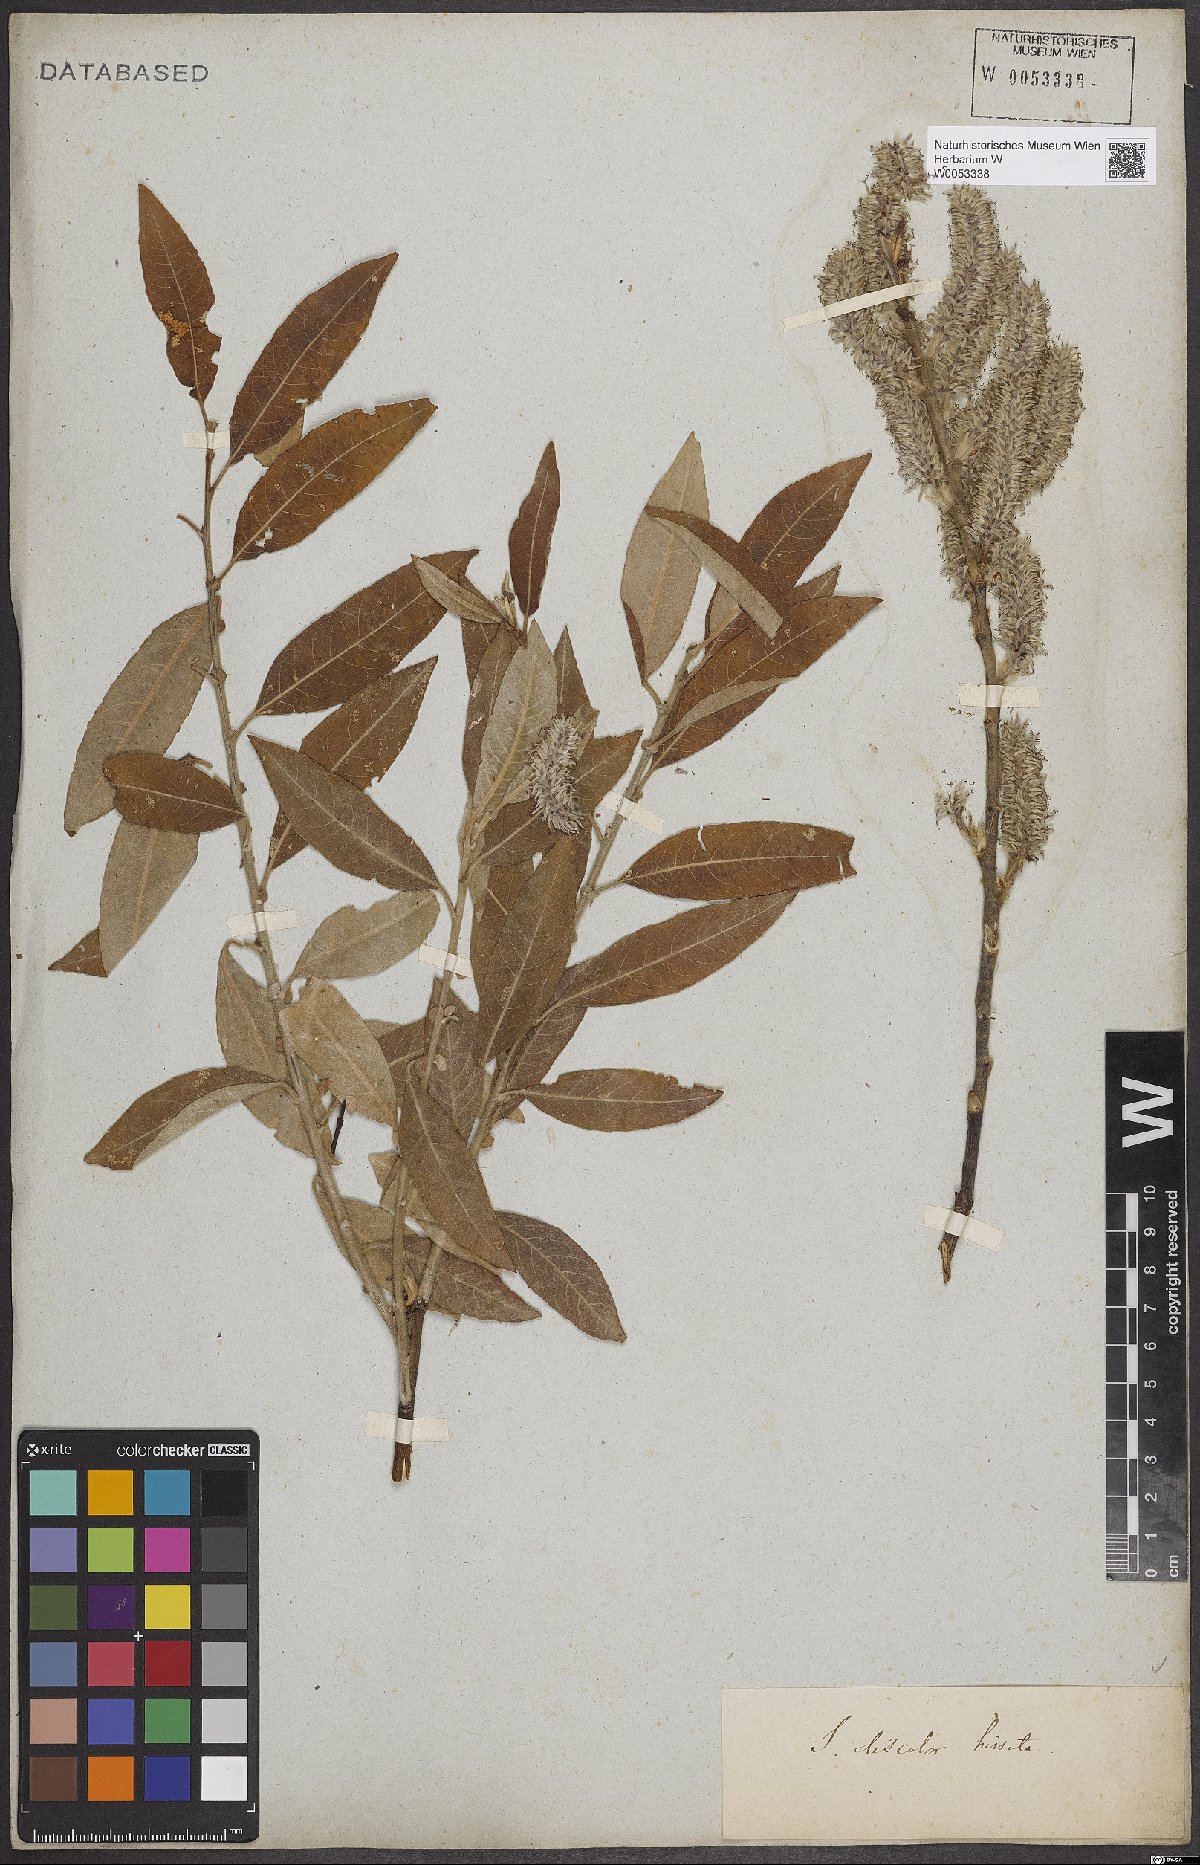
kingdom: Plantae
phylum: Tracheophyta
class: Magnoliopsida
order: Malpighiales
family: Salicaceae
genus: Salix
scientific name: Salix discolor
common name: Glaucous willow
